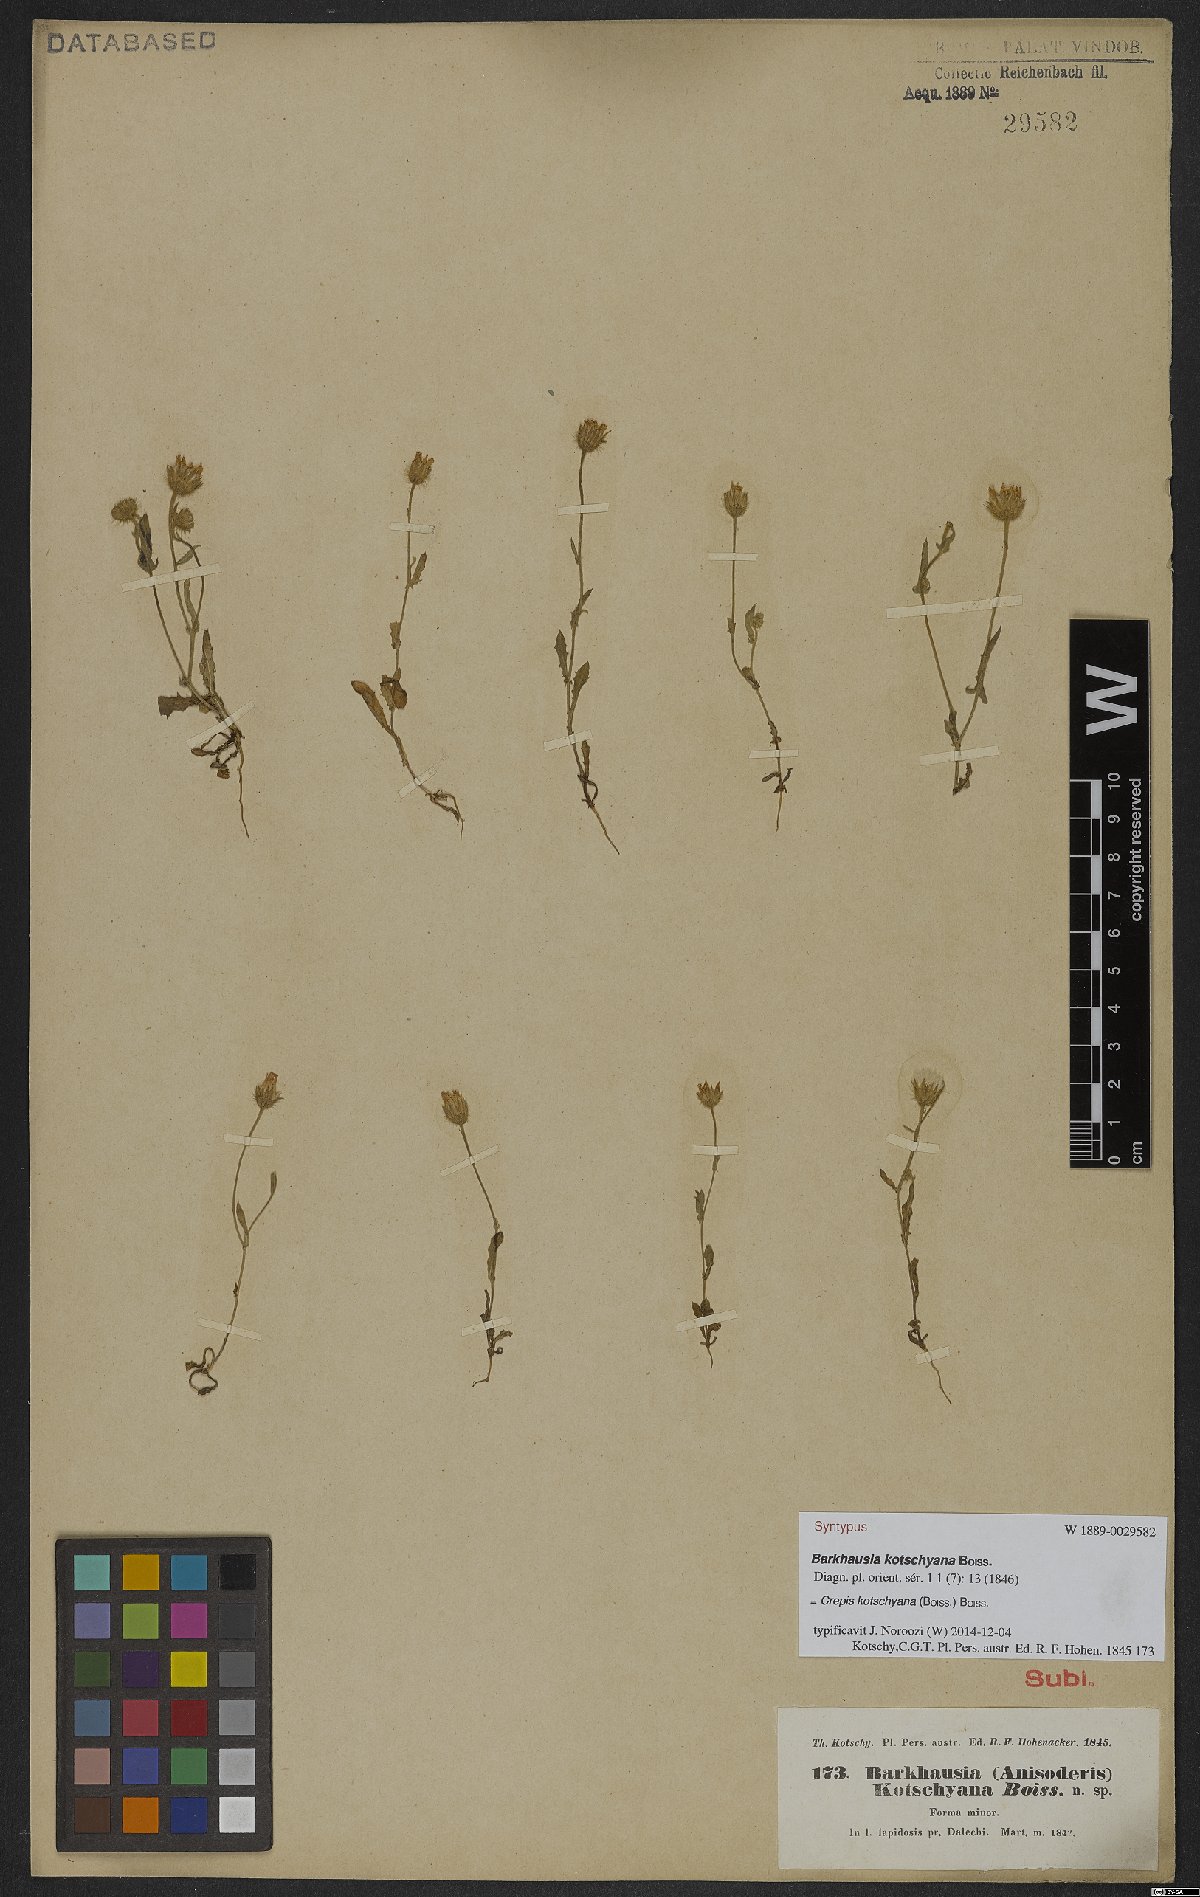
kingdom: Plantae
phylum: Tracheophyta
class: Magnoliopsida
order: Asterales
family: Asteraceae
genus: Crepis
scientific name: Crepis kotschyana
